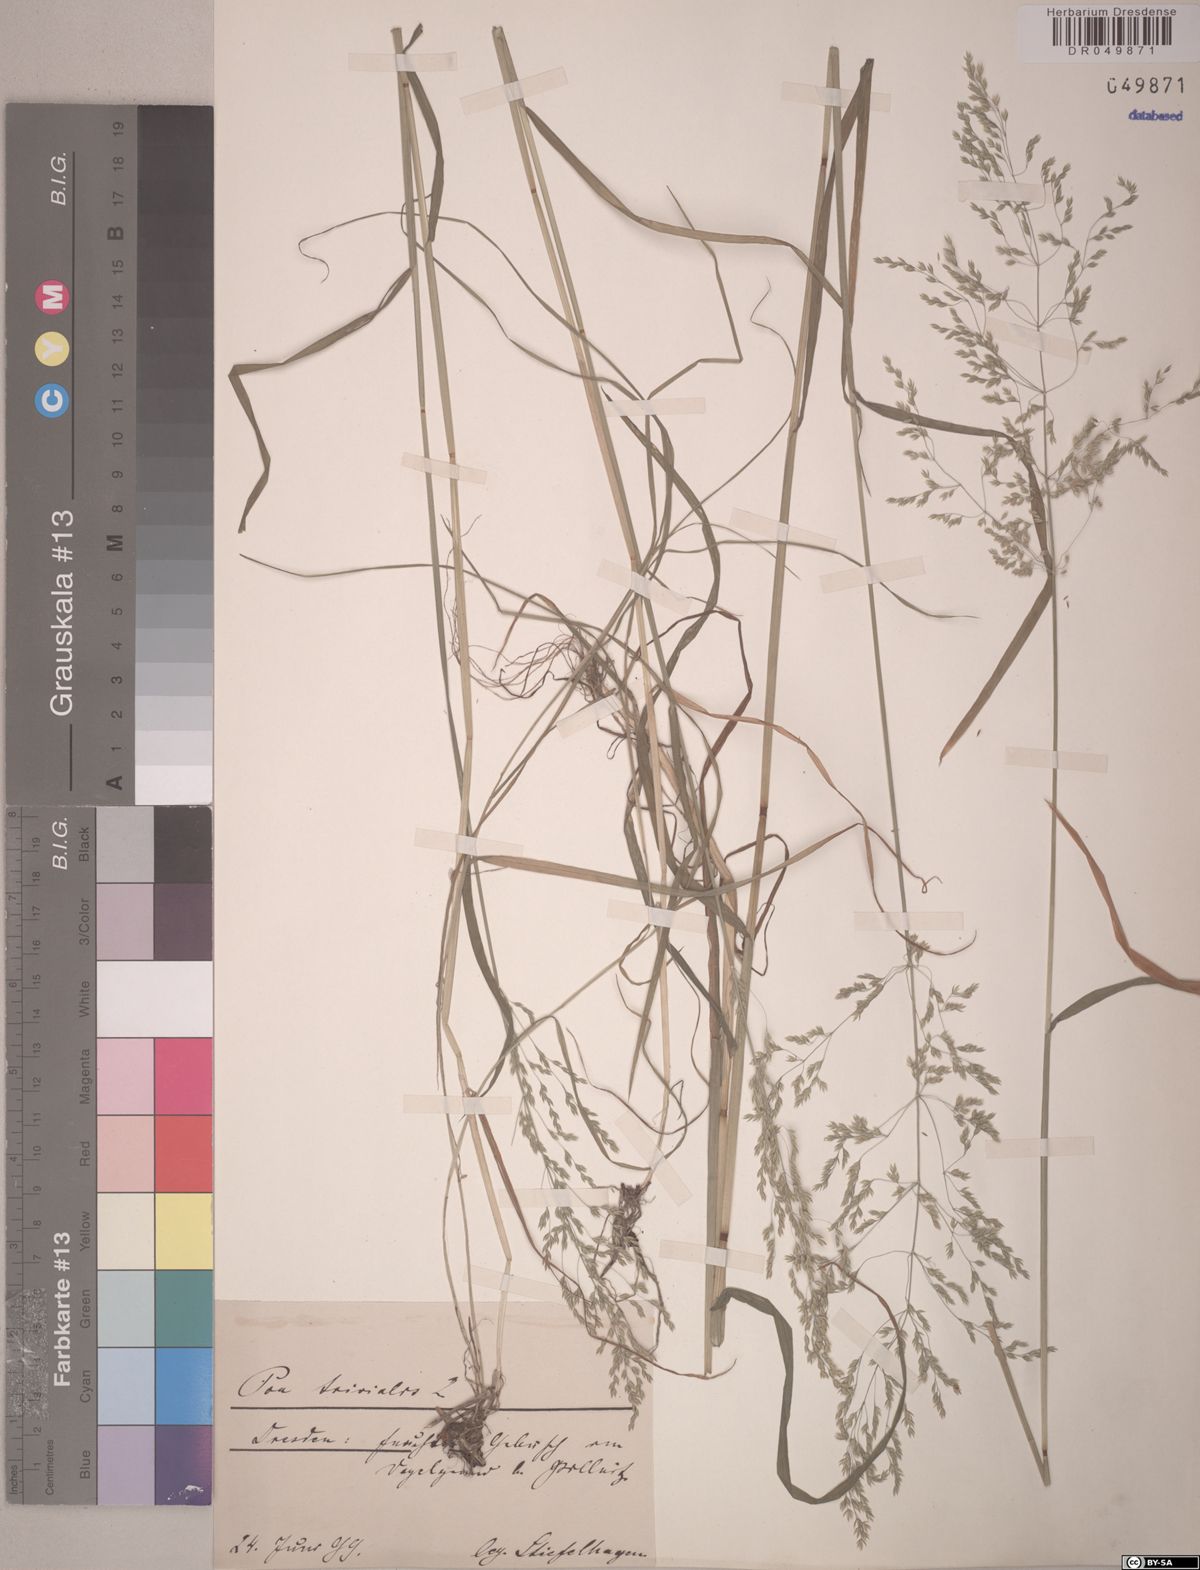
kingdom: Plantae
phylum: Tracheophyta
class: Liliopsida
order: Poales
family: Poaceae
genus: Poa
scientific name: Poa trivialis
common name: Rough bluegrass
